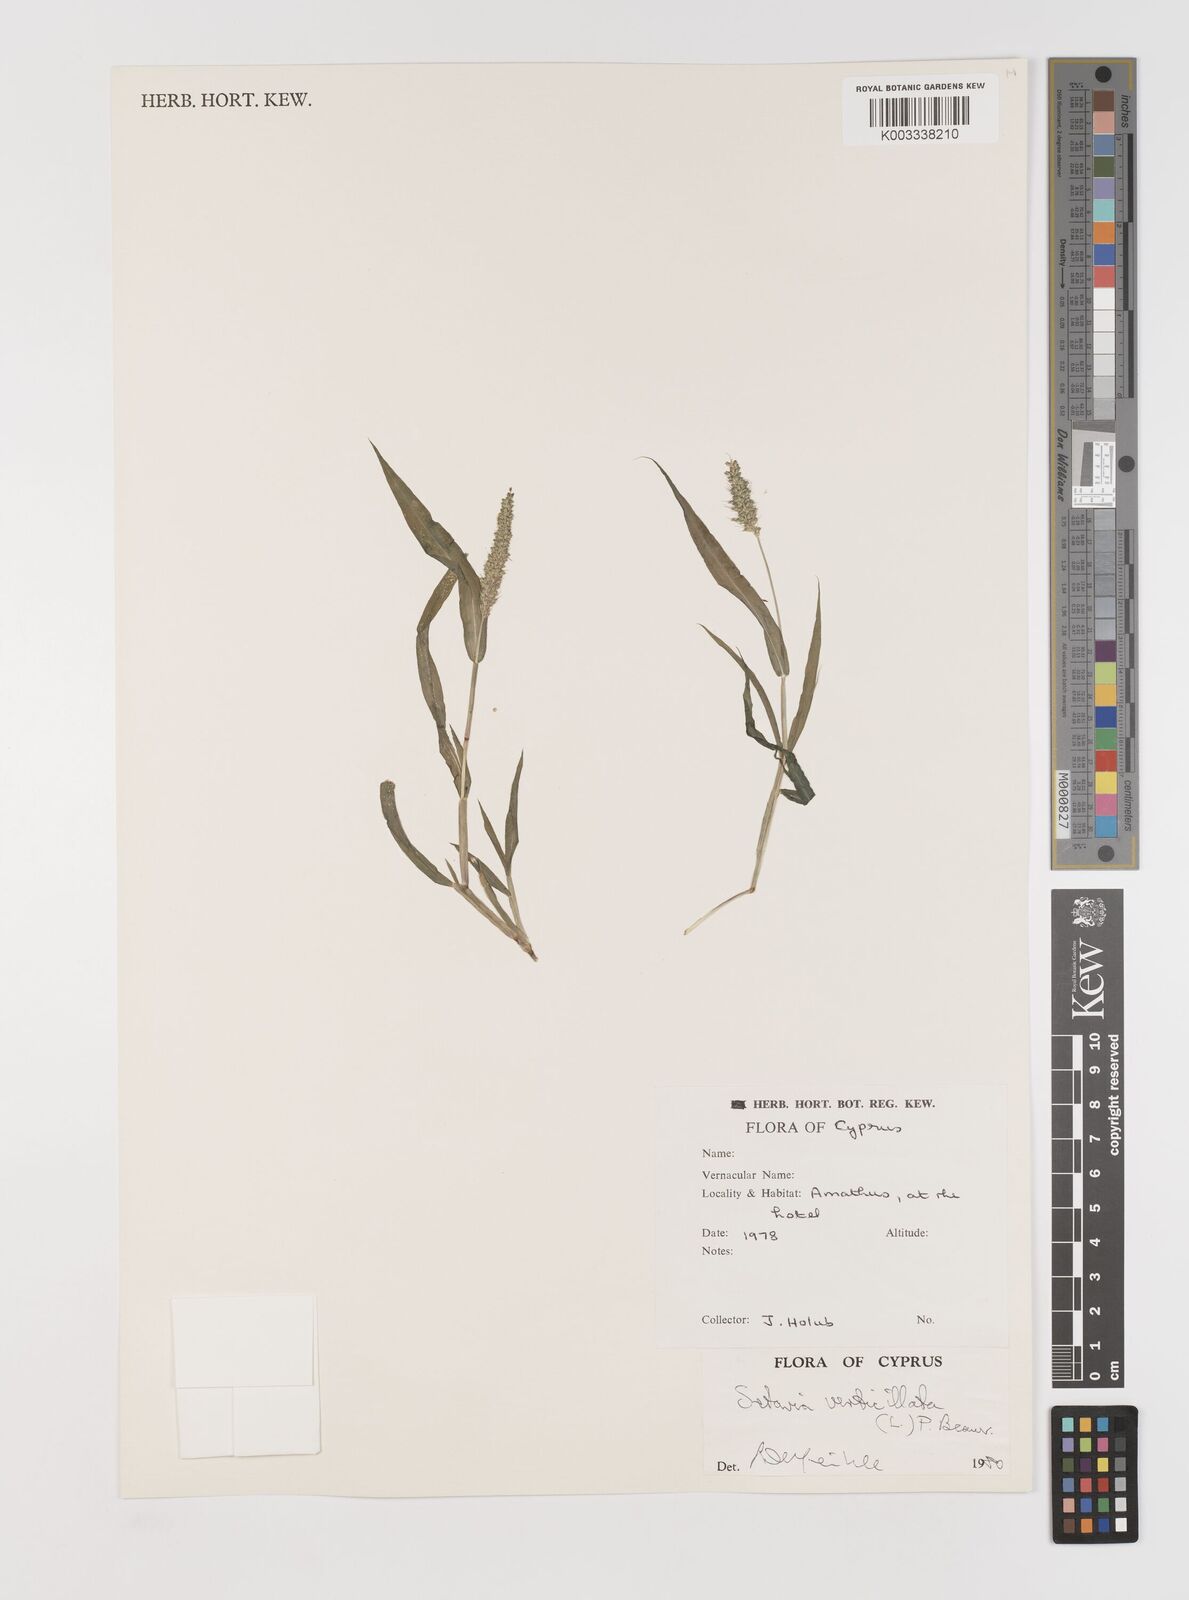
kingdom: Plantae
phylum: Tracheophyta
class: Liliopsida
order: Poales
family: Poaceae
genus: Setaria
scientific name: Setaria verticillata
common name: Hooked bristlegrass
